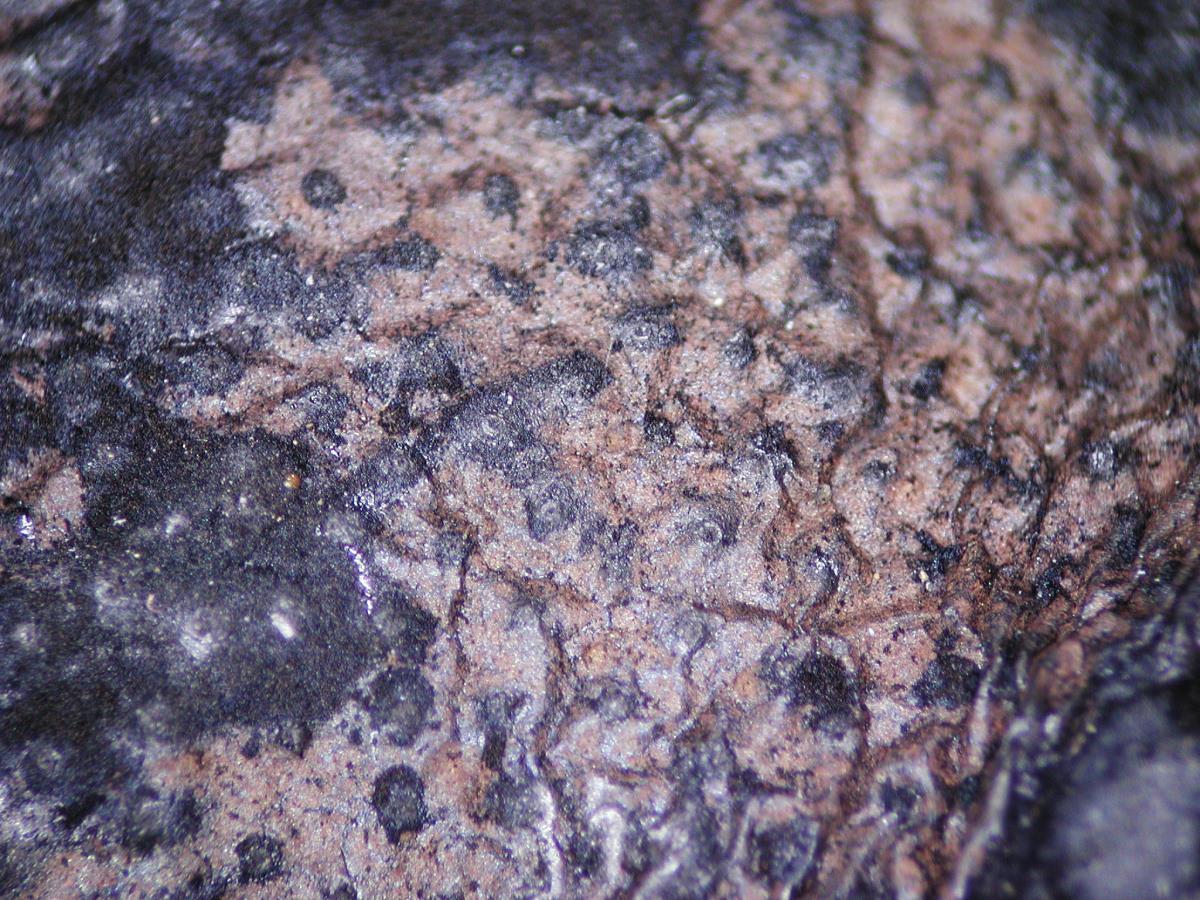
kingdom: Fungi
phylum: Ascomycota
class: Sordariomycetes
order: Xylariales
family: Hypoxylaceae
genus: Daldinia
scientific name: Daldinia novae-zelandiae
